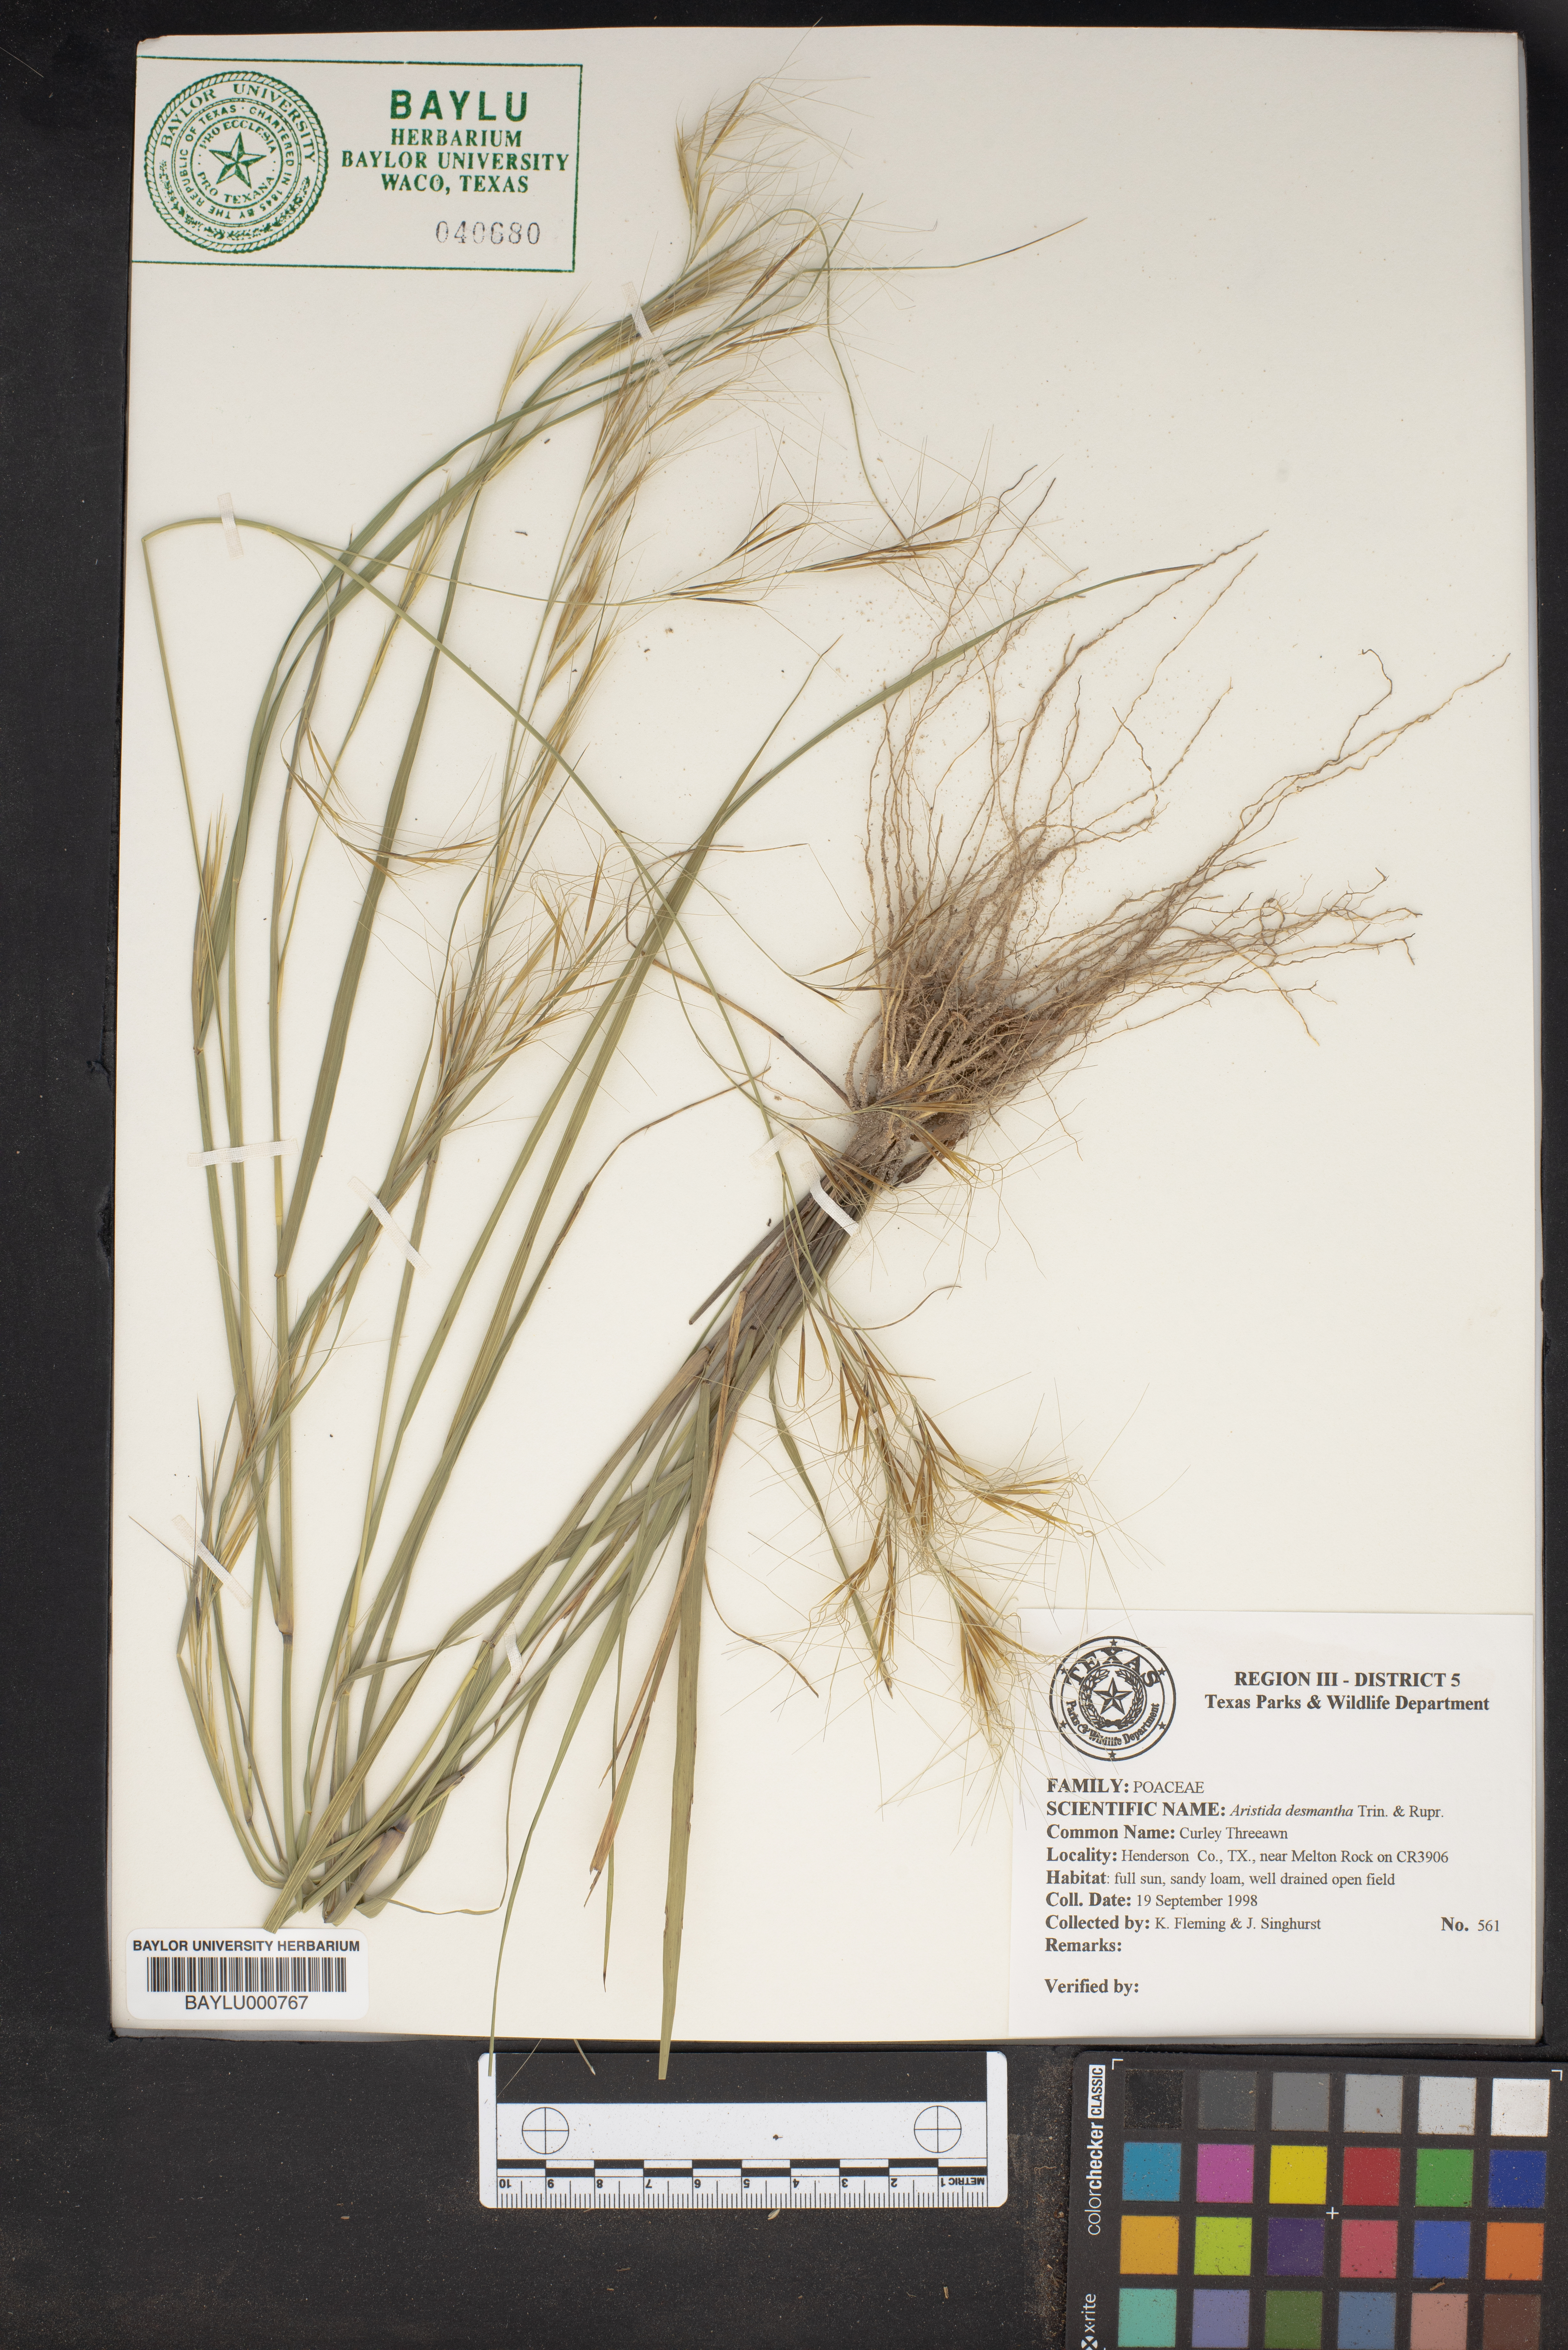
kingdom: Plantae
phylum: Tracheophyta
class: Liliopsida
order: Poales
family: Poaceae
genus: Aristida
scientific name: Aristida desmantha
